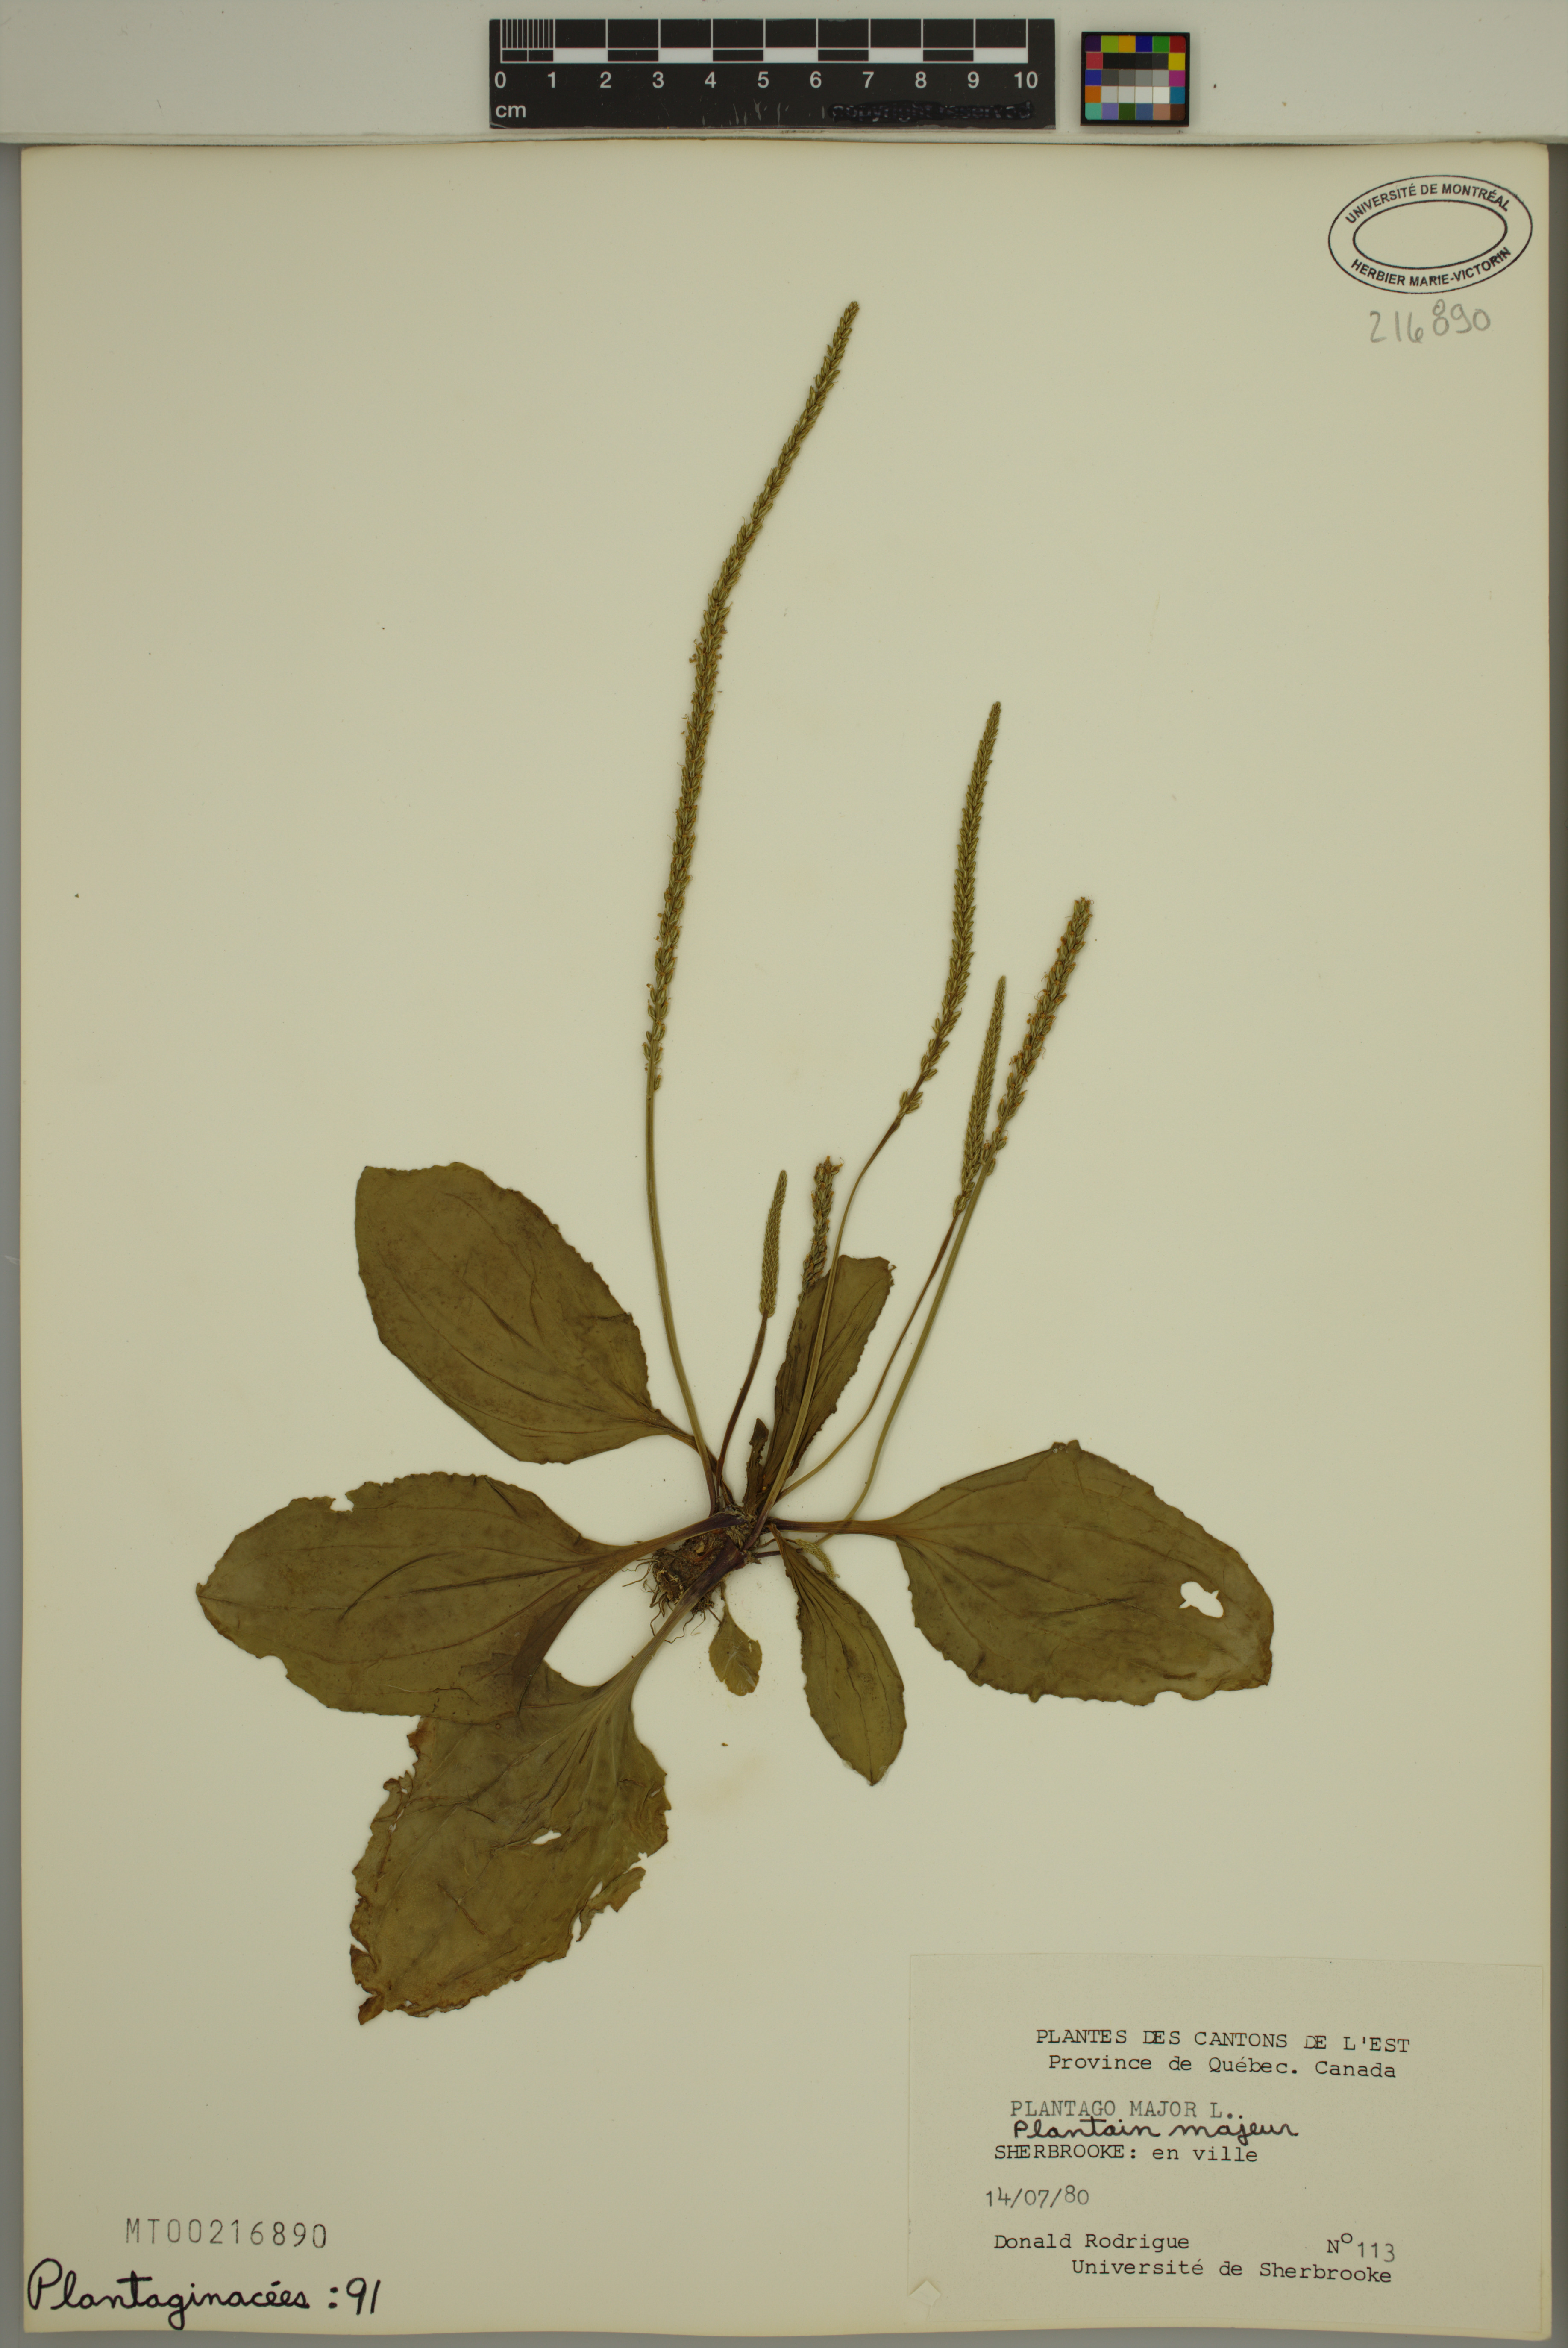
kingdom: Plantae
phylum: Tracheophyta
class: Magnoliopsida
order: Lamiales
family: Plantaginaceae
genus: Plantago
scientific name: Plantago major
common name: Common plantain
